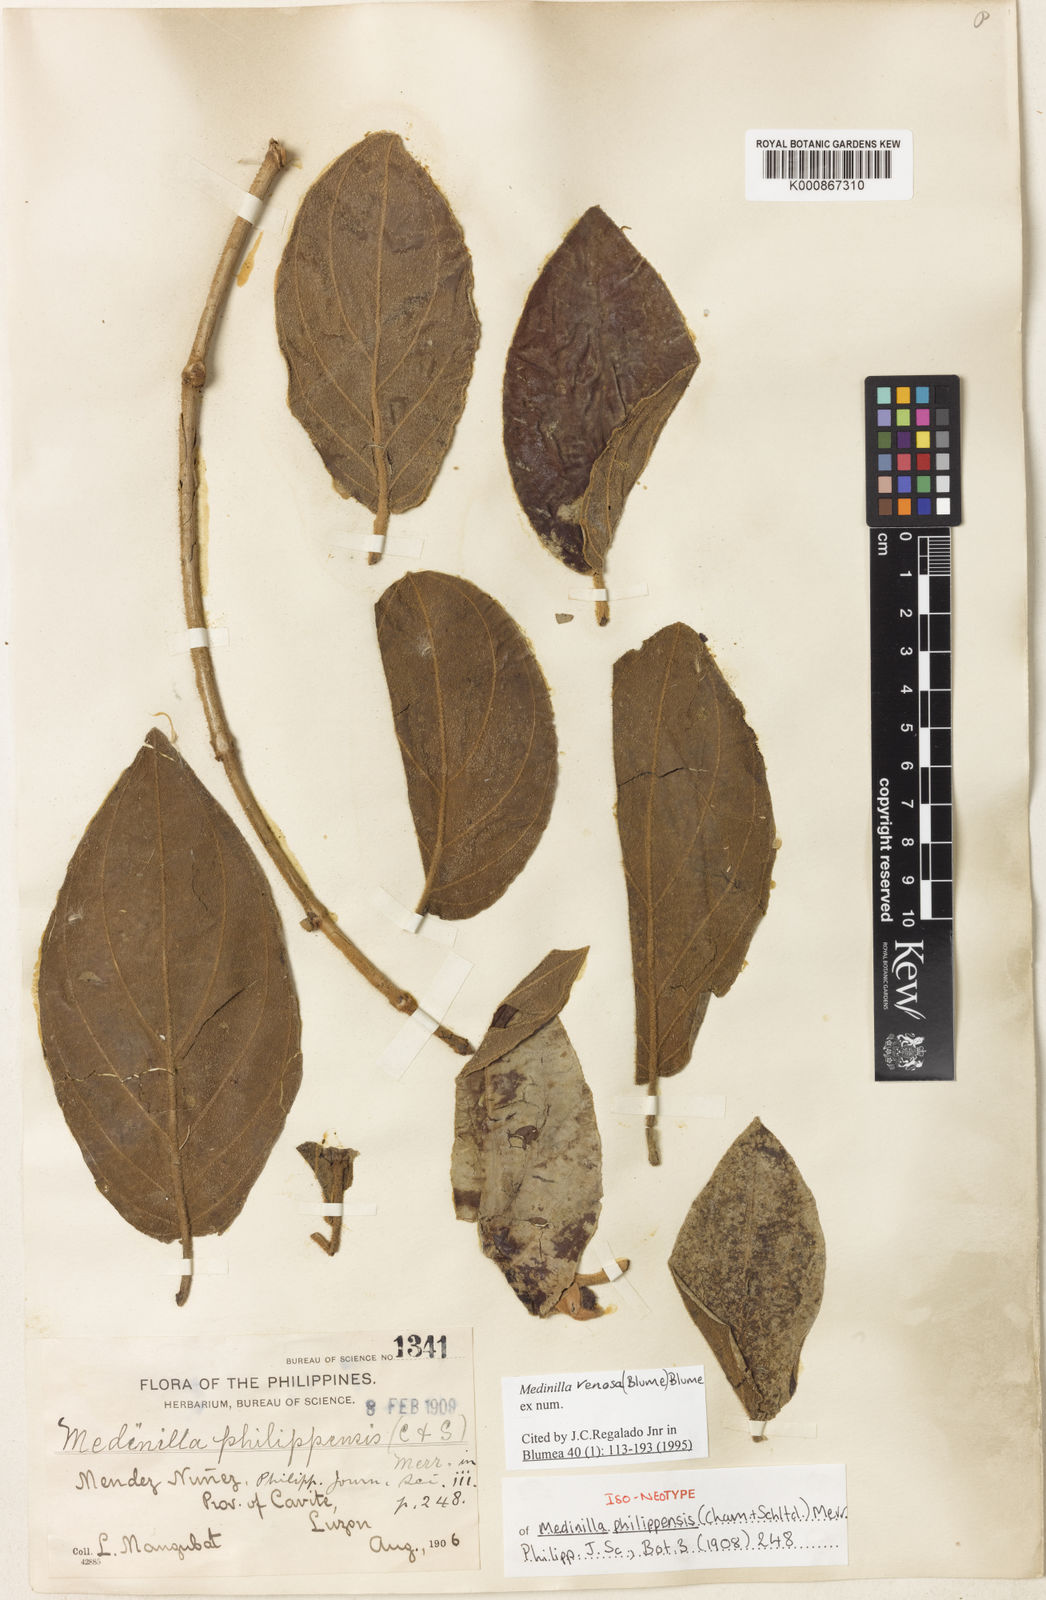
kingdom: Plantae
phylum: Tracheophyta
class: Magnoliopsida
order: Myrtales
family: Melastomataceae
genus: Medinilla
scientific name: Medinilla venosa
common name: Holdtight
